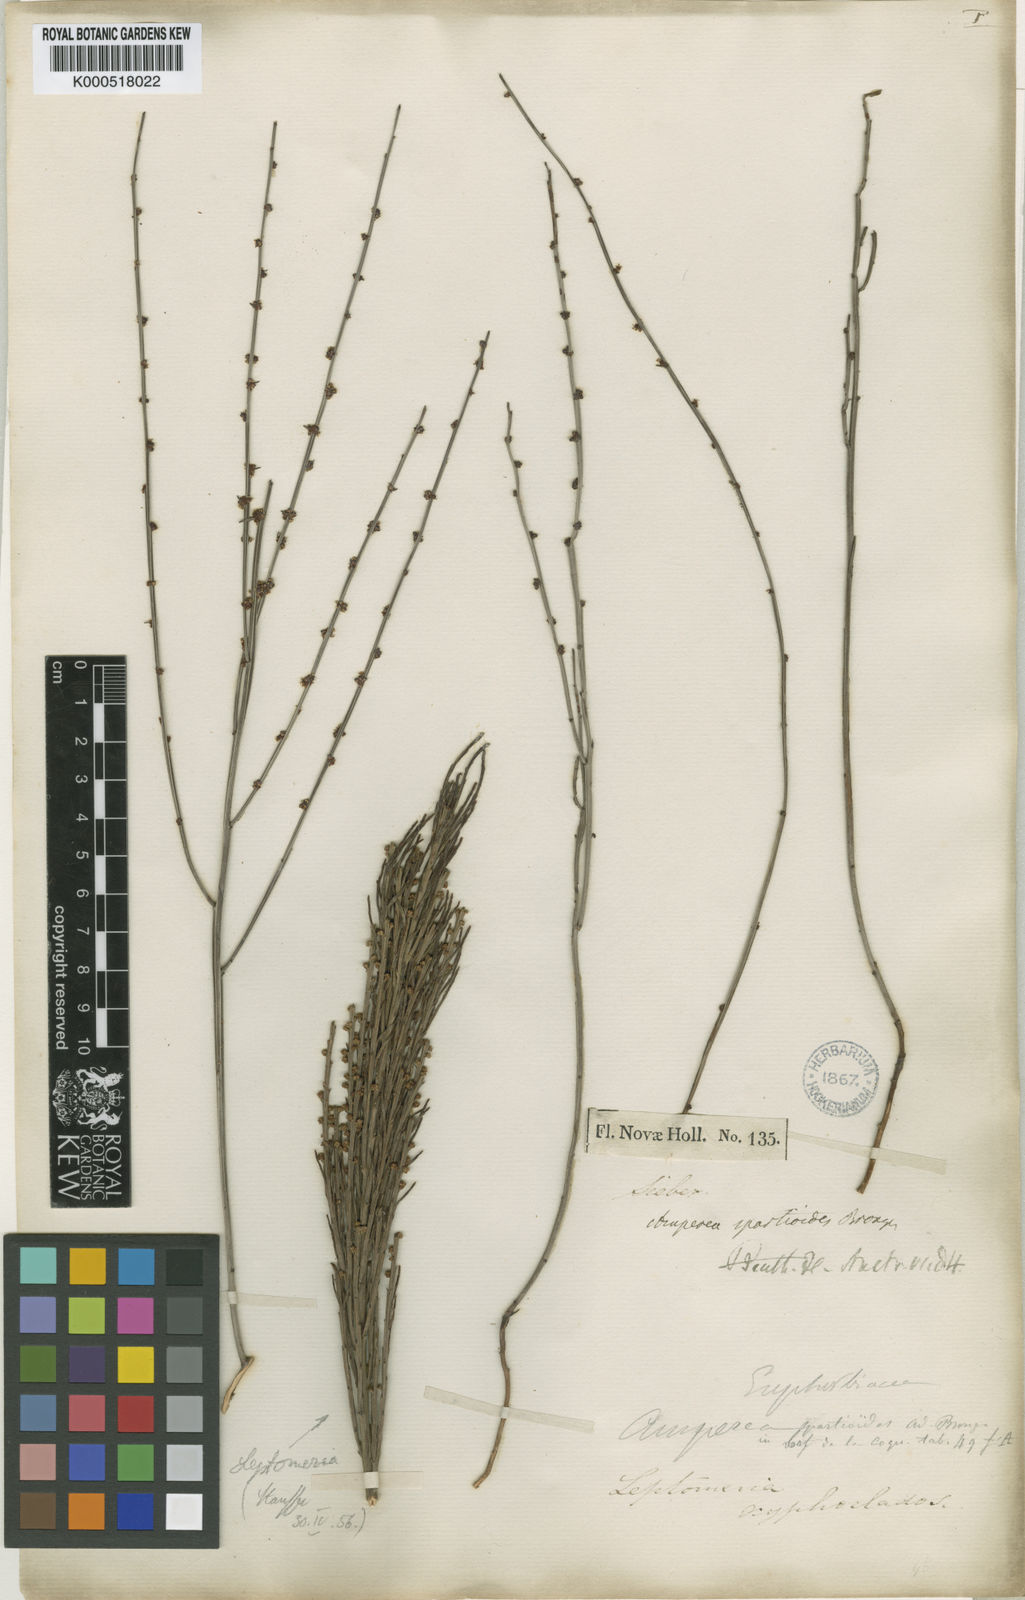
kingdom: Plantae
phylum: Tracheophyta
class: Magnoliopsida
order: Malpighiales
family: Euphorbiaceae
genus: Amperea
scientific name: Amperea xiphoclada
